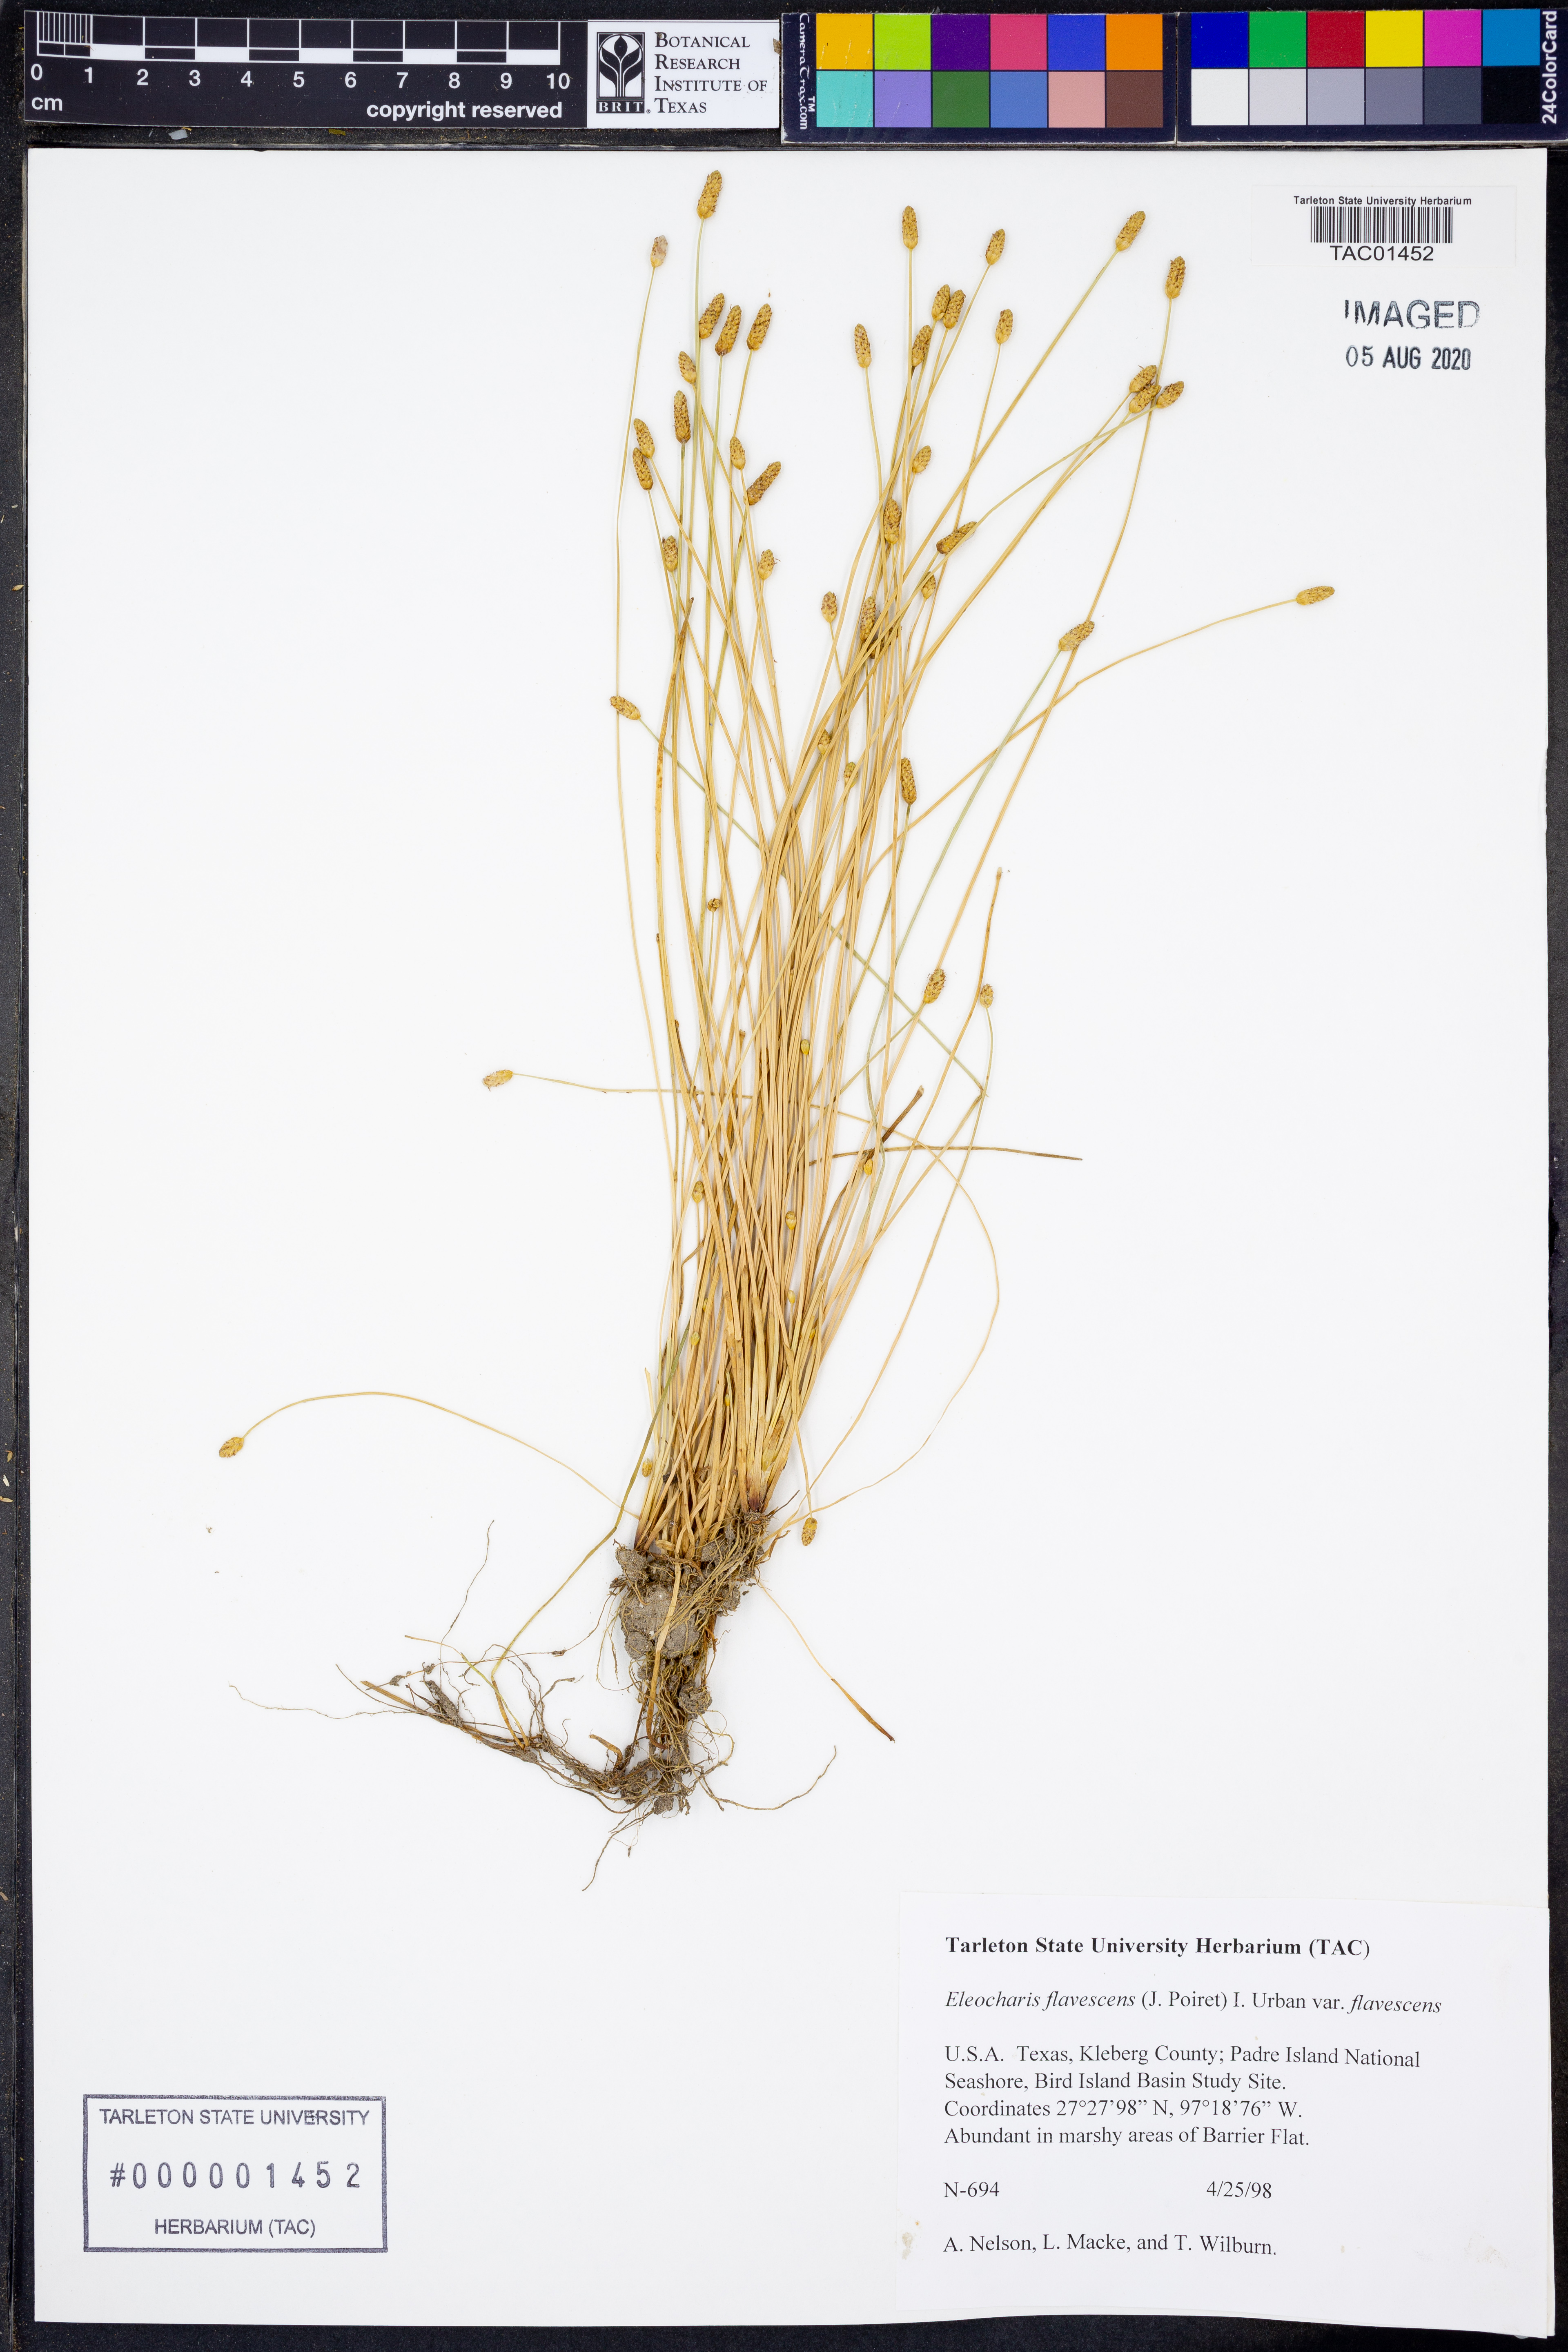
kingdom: Plantae
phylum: Tracheophyta
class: Liliopsida
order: Poales
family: Cyperaceae
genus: Eleocharis
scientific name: Eleocharis flavescens
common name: Yellow spikerush
